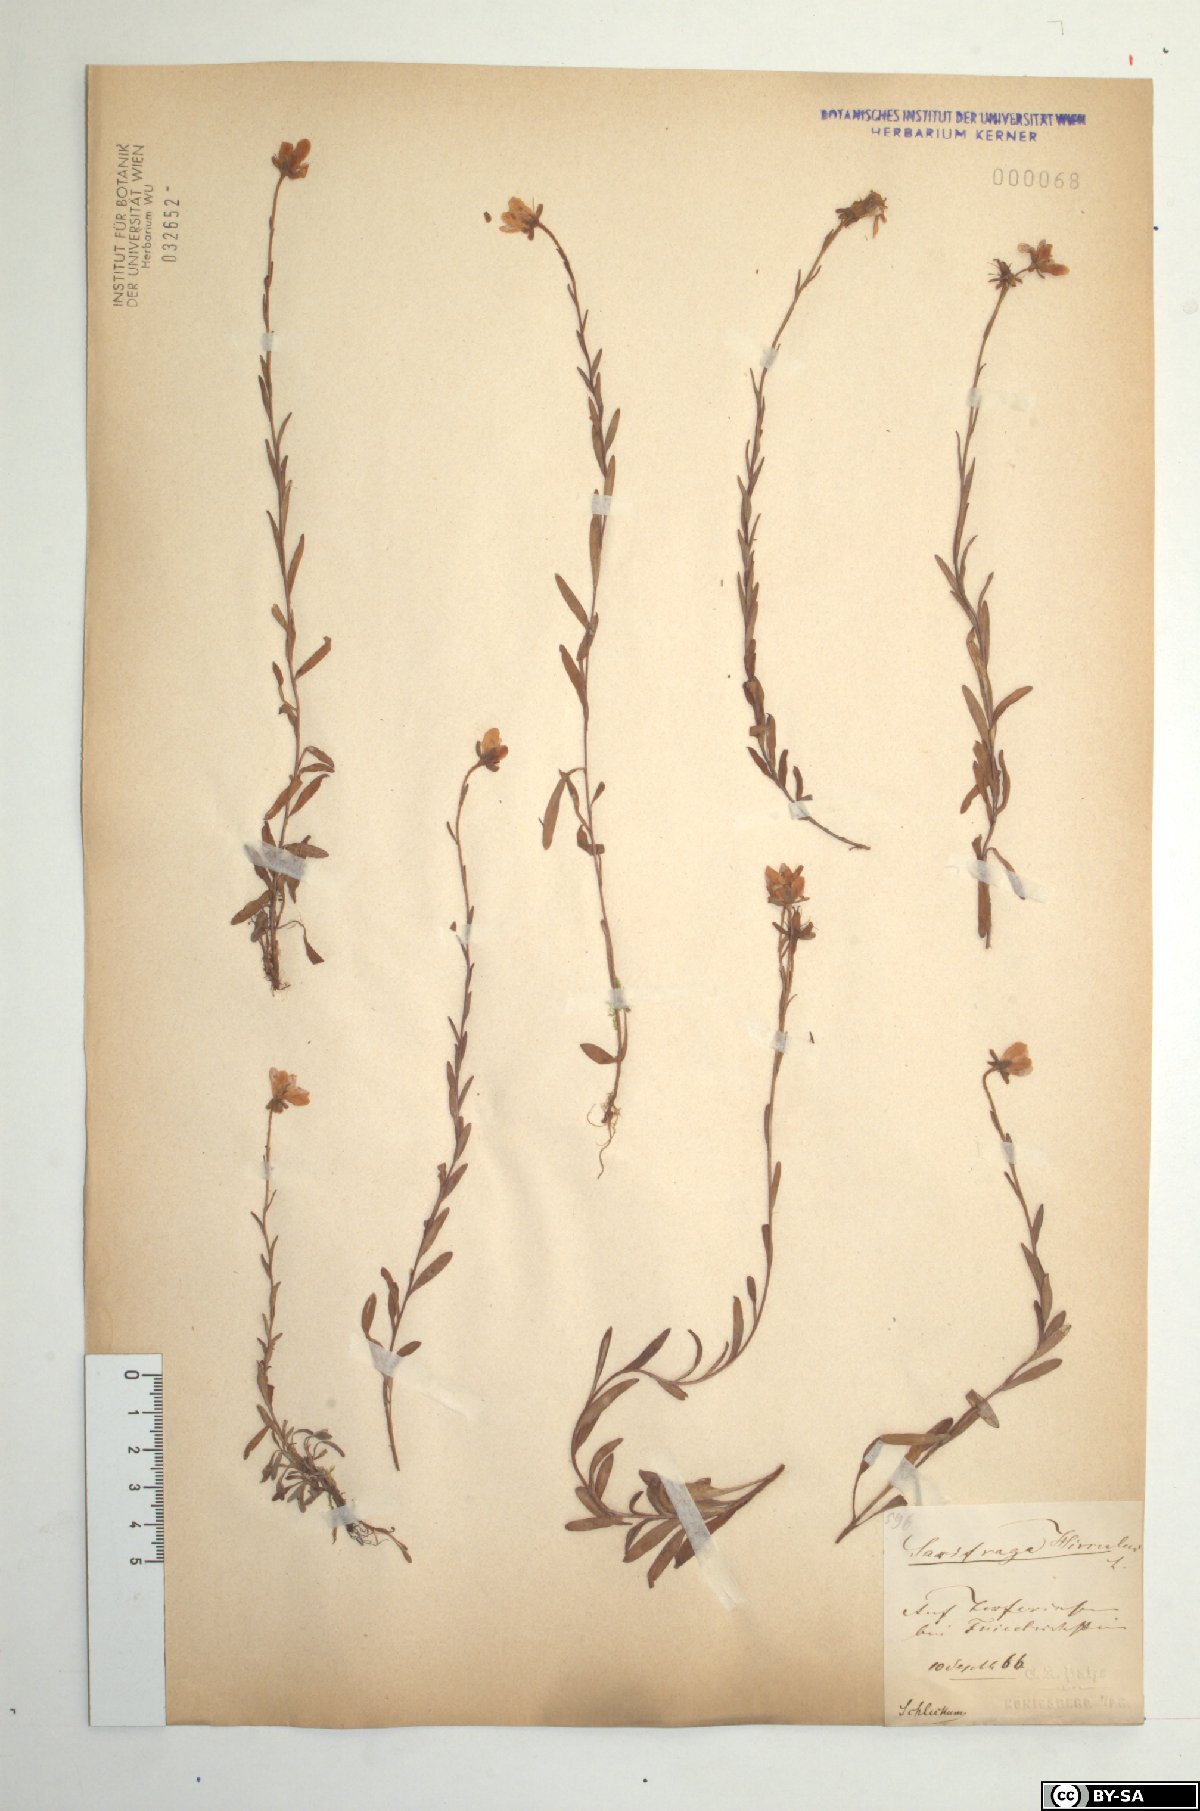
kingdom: Plantae
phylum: Tracheophyta
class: Magnoliopsida
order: Saxifragales
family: Saxifragaceae
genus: Saxifraga
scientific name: Saxifraga hirculus
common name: Yellow marsh saxifrage
